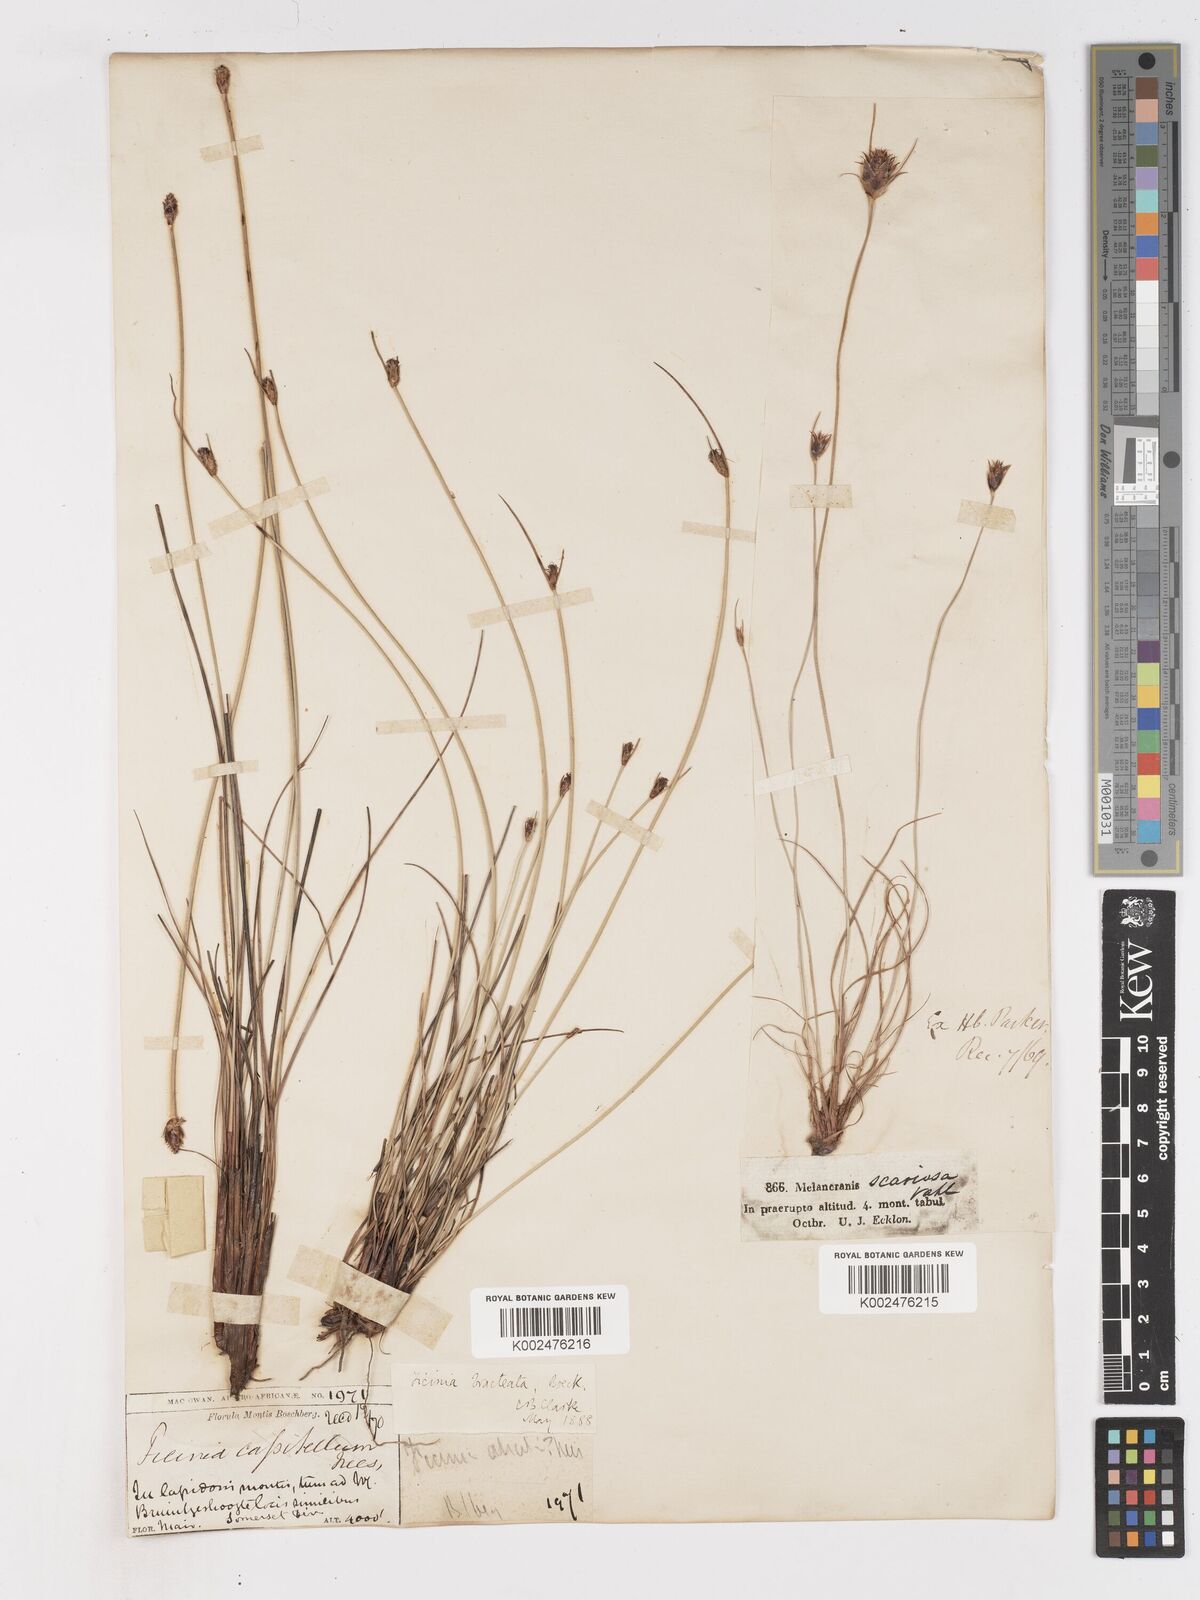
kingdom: Plantae
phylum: Tracheophyta
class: Liliopsida
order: Poales
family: Cyperaceae
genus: Ficinia
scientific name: Ficinia nigrescens
